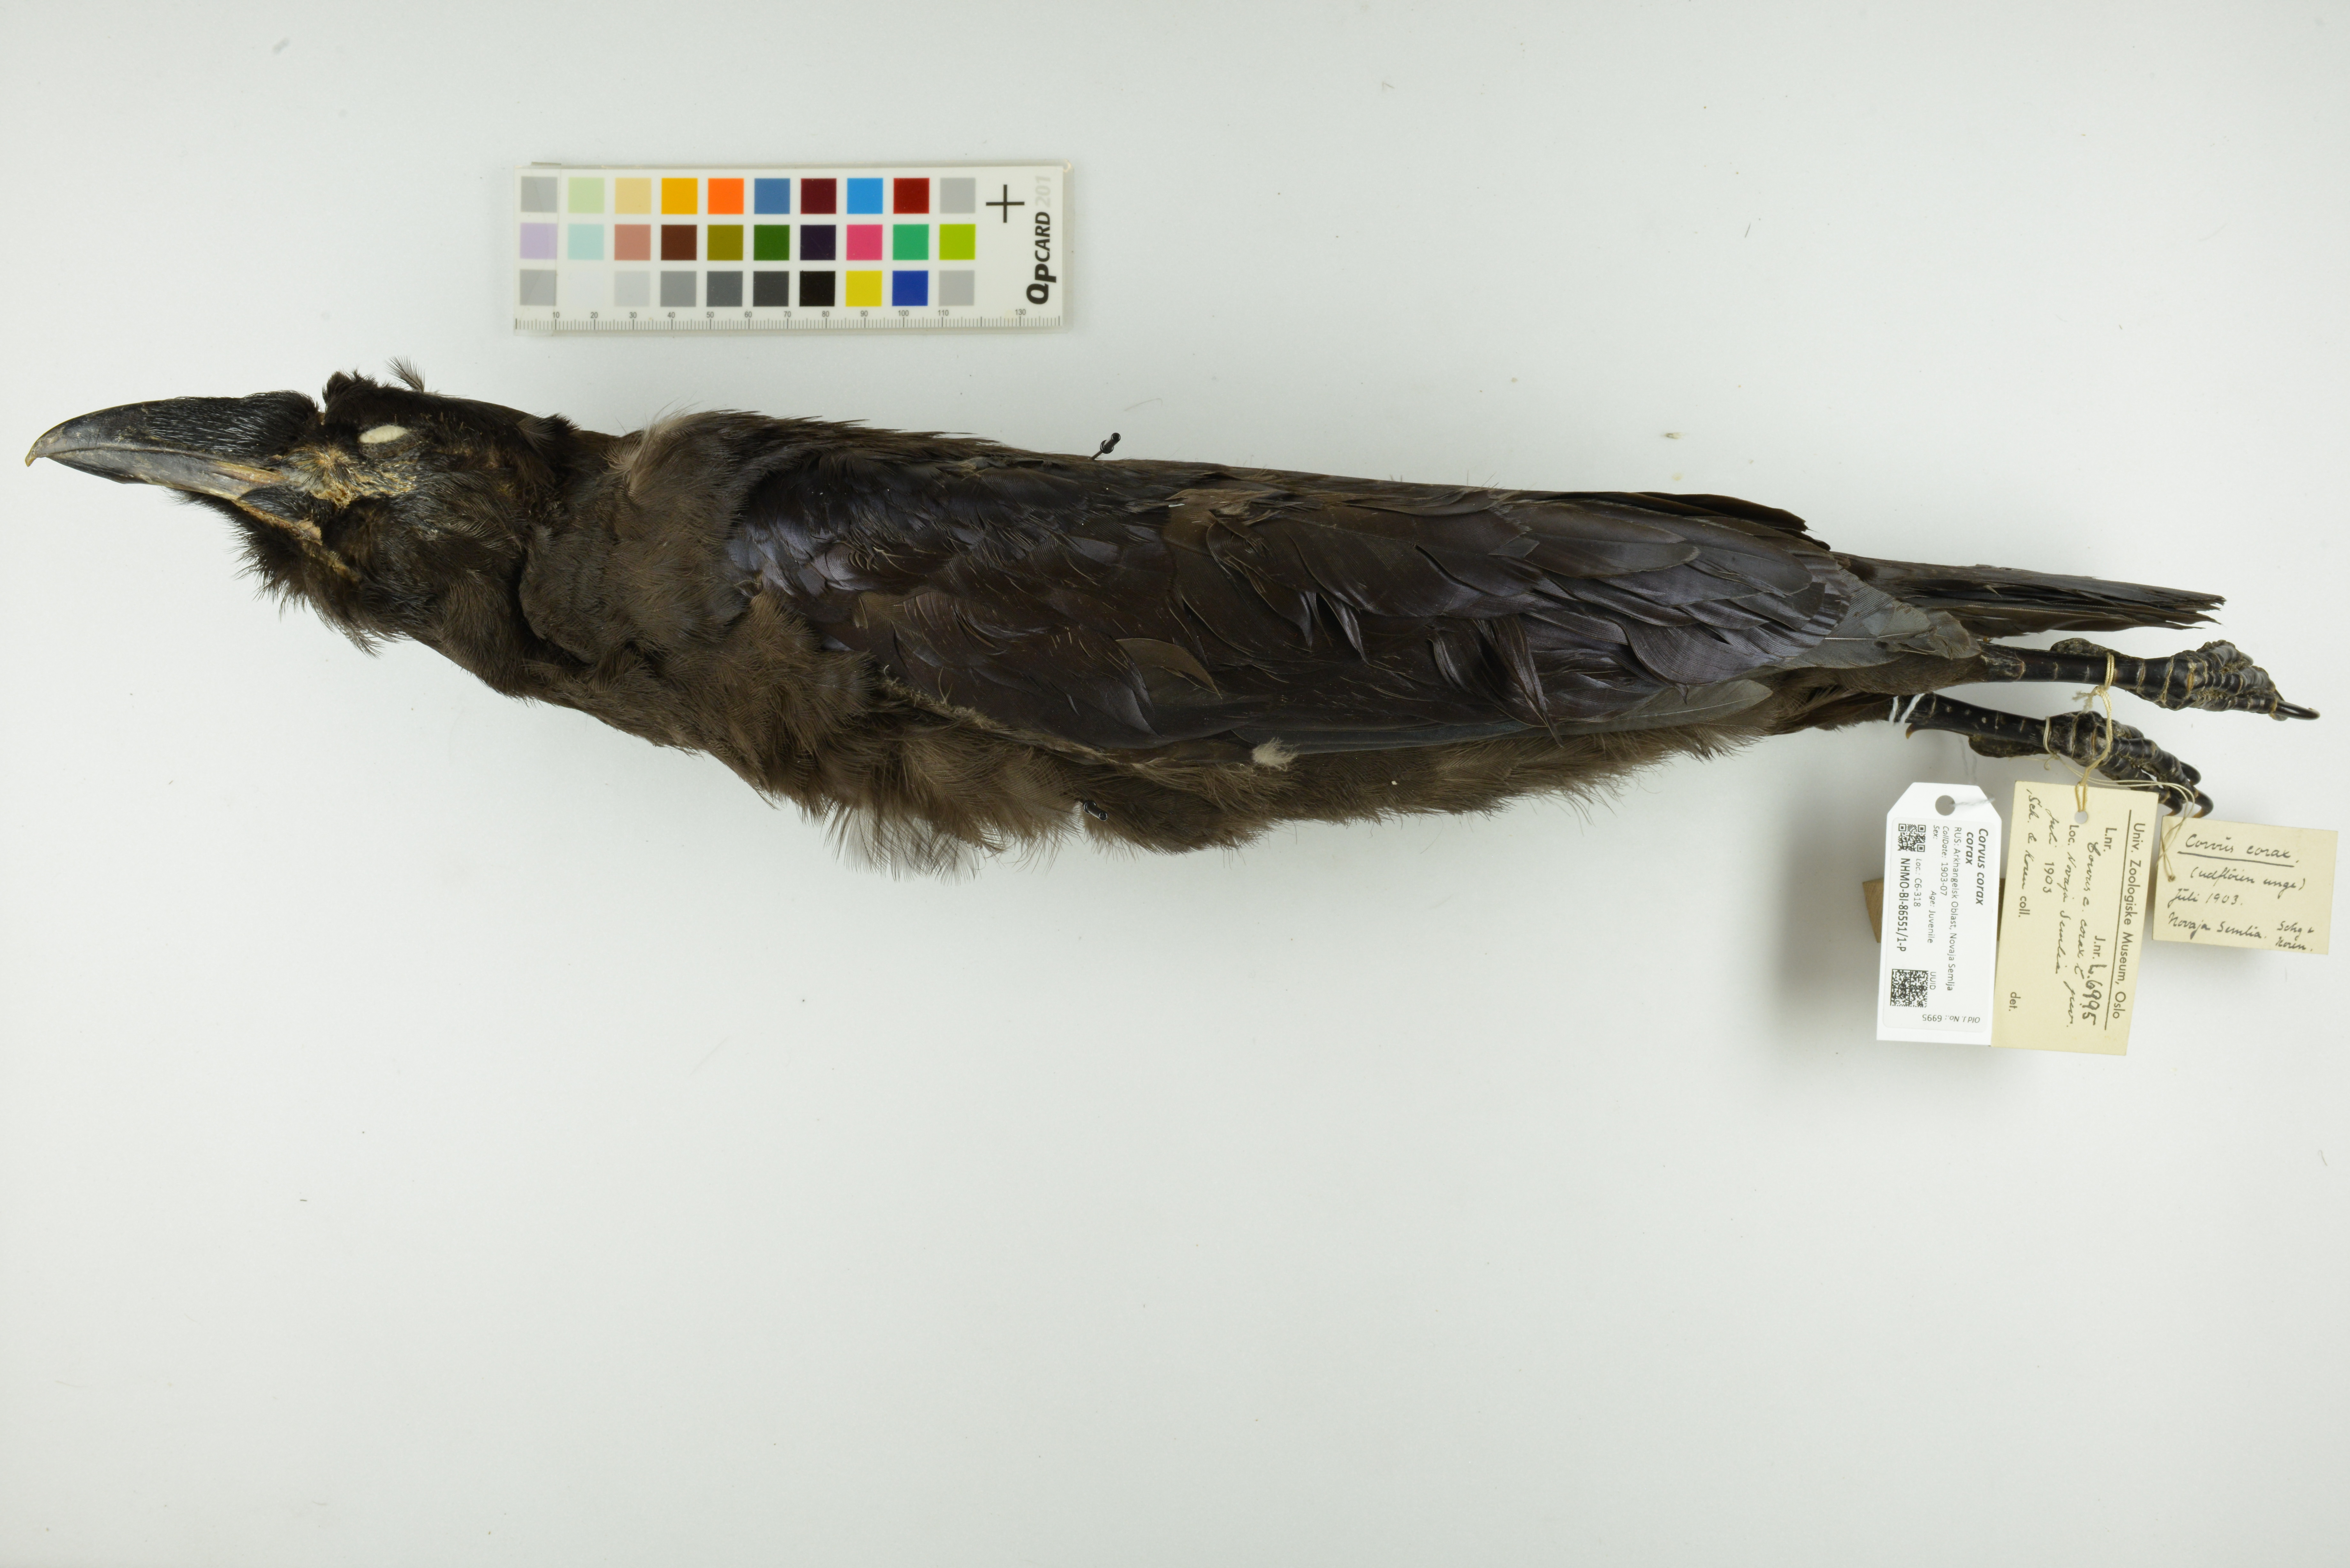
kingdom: Animalia
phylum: Chordata
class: Aves
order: Passeriformes
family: Corvidae
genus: Corvus
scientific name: Corvus corax
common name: Common raven
